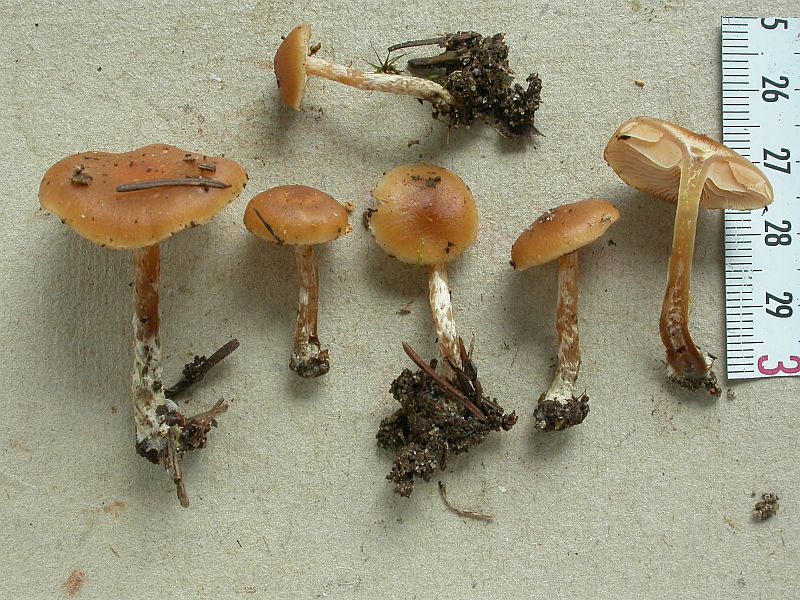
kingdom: Fungi
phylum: Basidiomycota
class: Agaricomycetes
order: Agaricales
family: Hymenogastraceae
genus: Galerina
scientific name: Galerina sideroides
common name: træflis-hjelmhat
